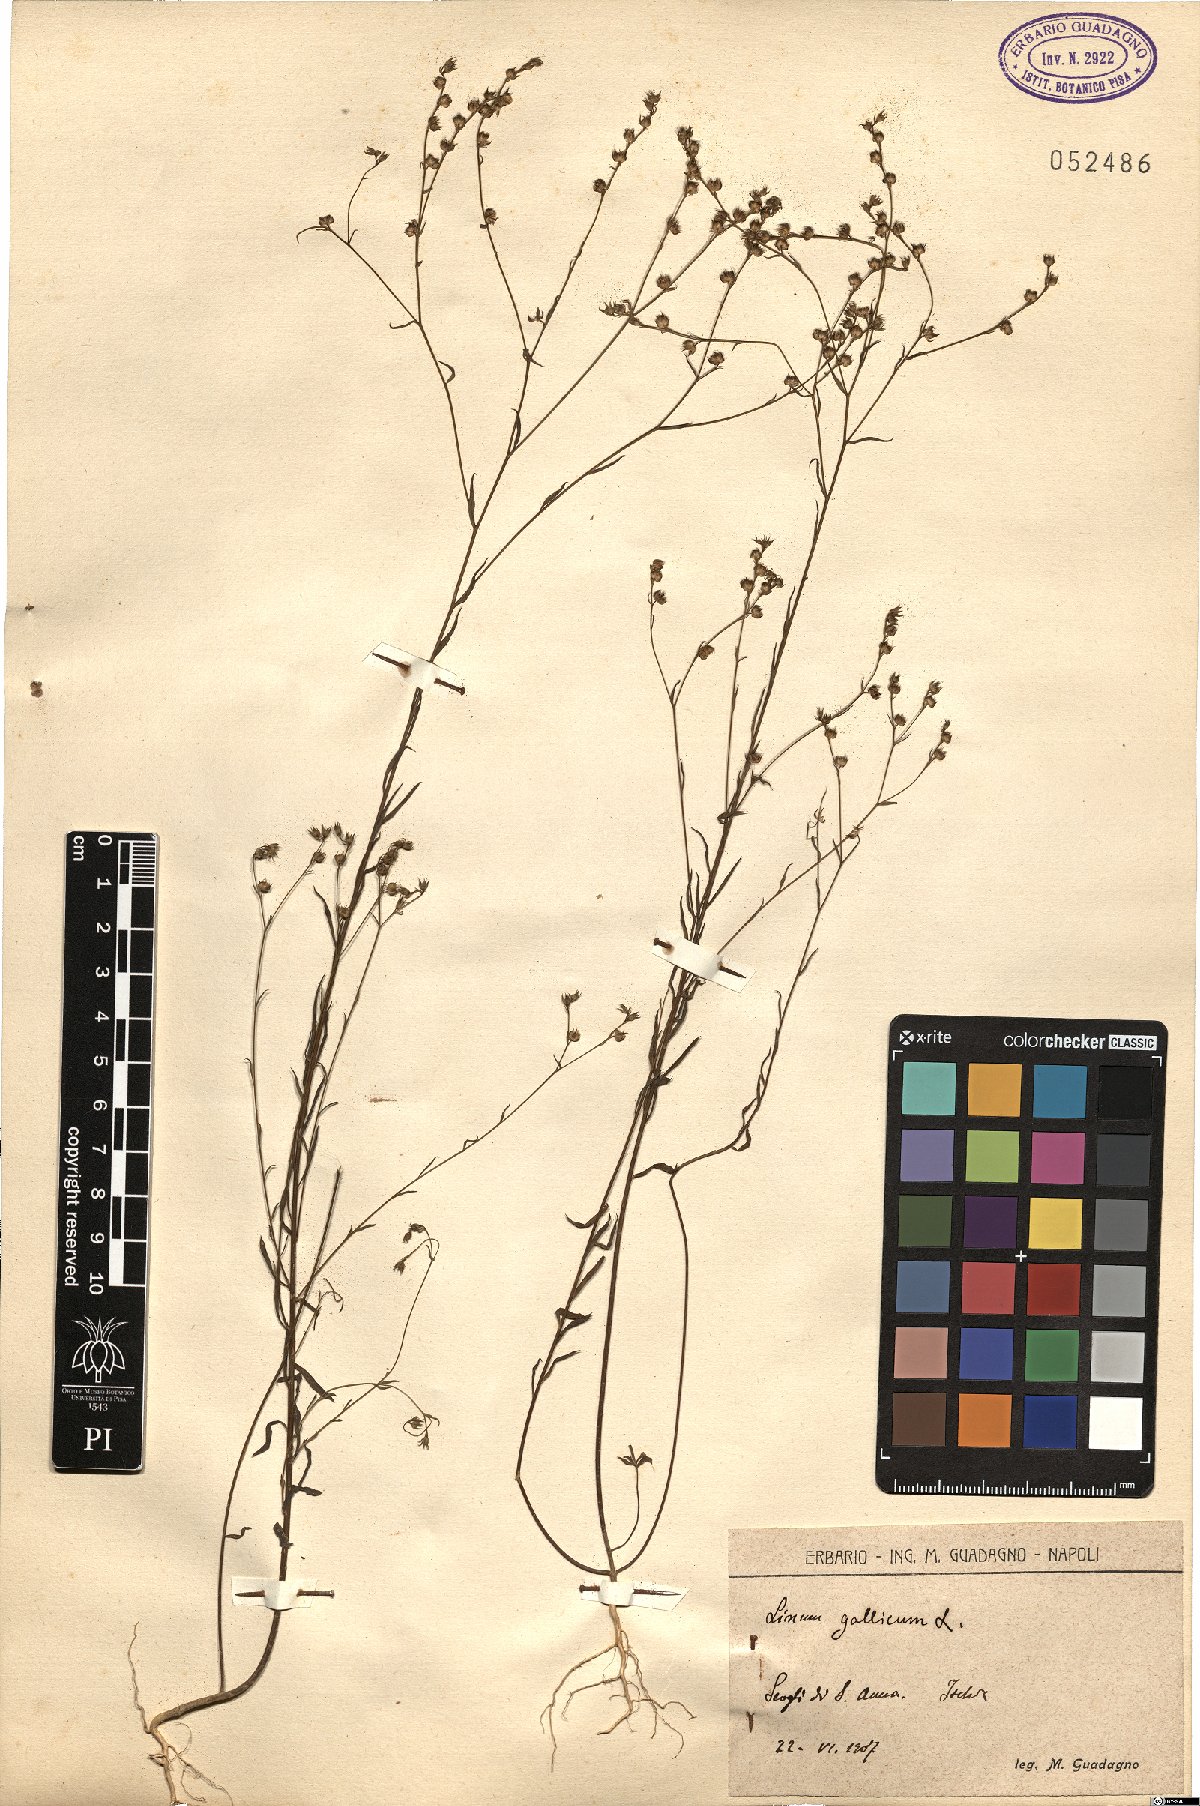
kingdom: Plantae
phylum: Tracheophyta
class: Magnoliopsida
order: Malpighiales
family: Linaceae
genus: Linum
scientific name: Linum trigynum
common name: French flax
